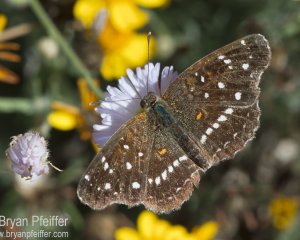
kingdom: Animalia
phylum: Arthropoda
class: Insecta
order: Lepidoptera
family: Nymphalidae
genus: Anthanassa
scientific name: Anthanassa texana
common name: Texan Crescent
